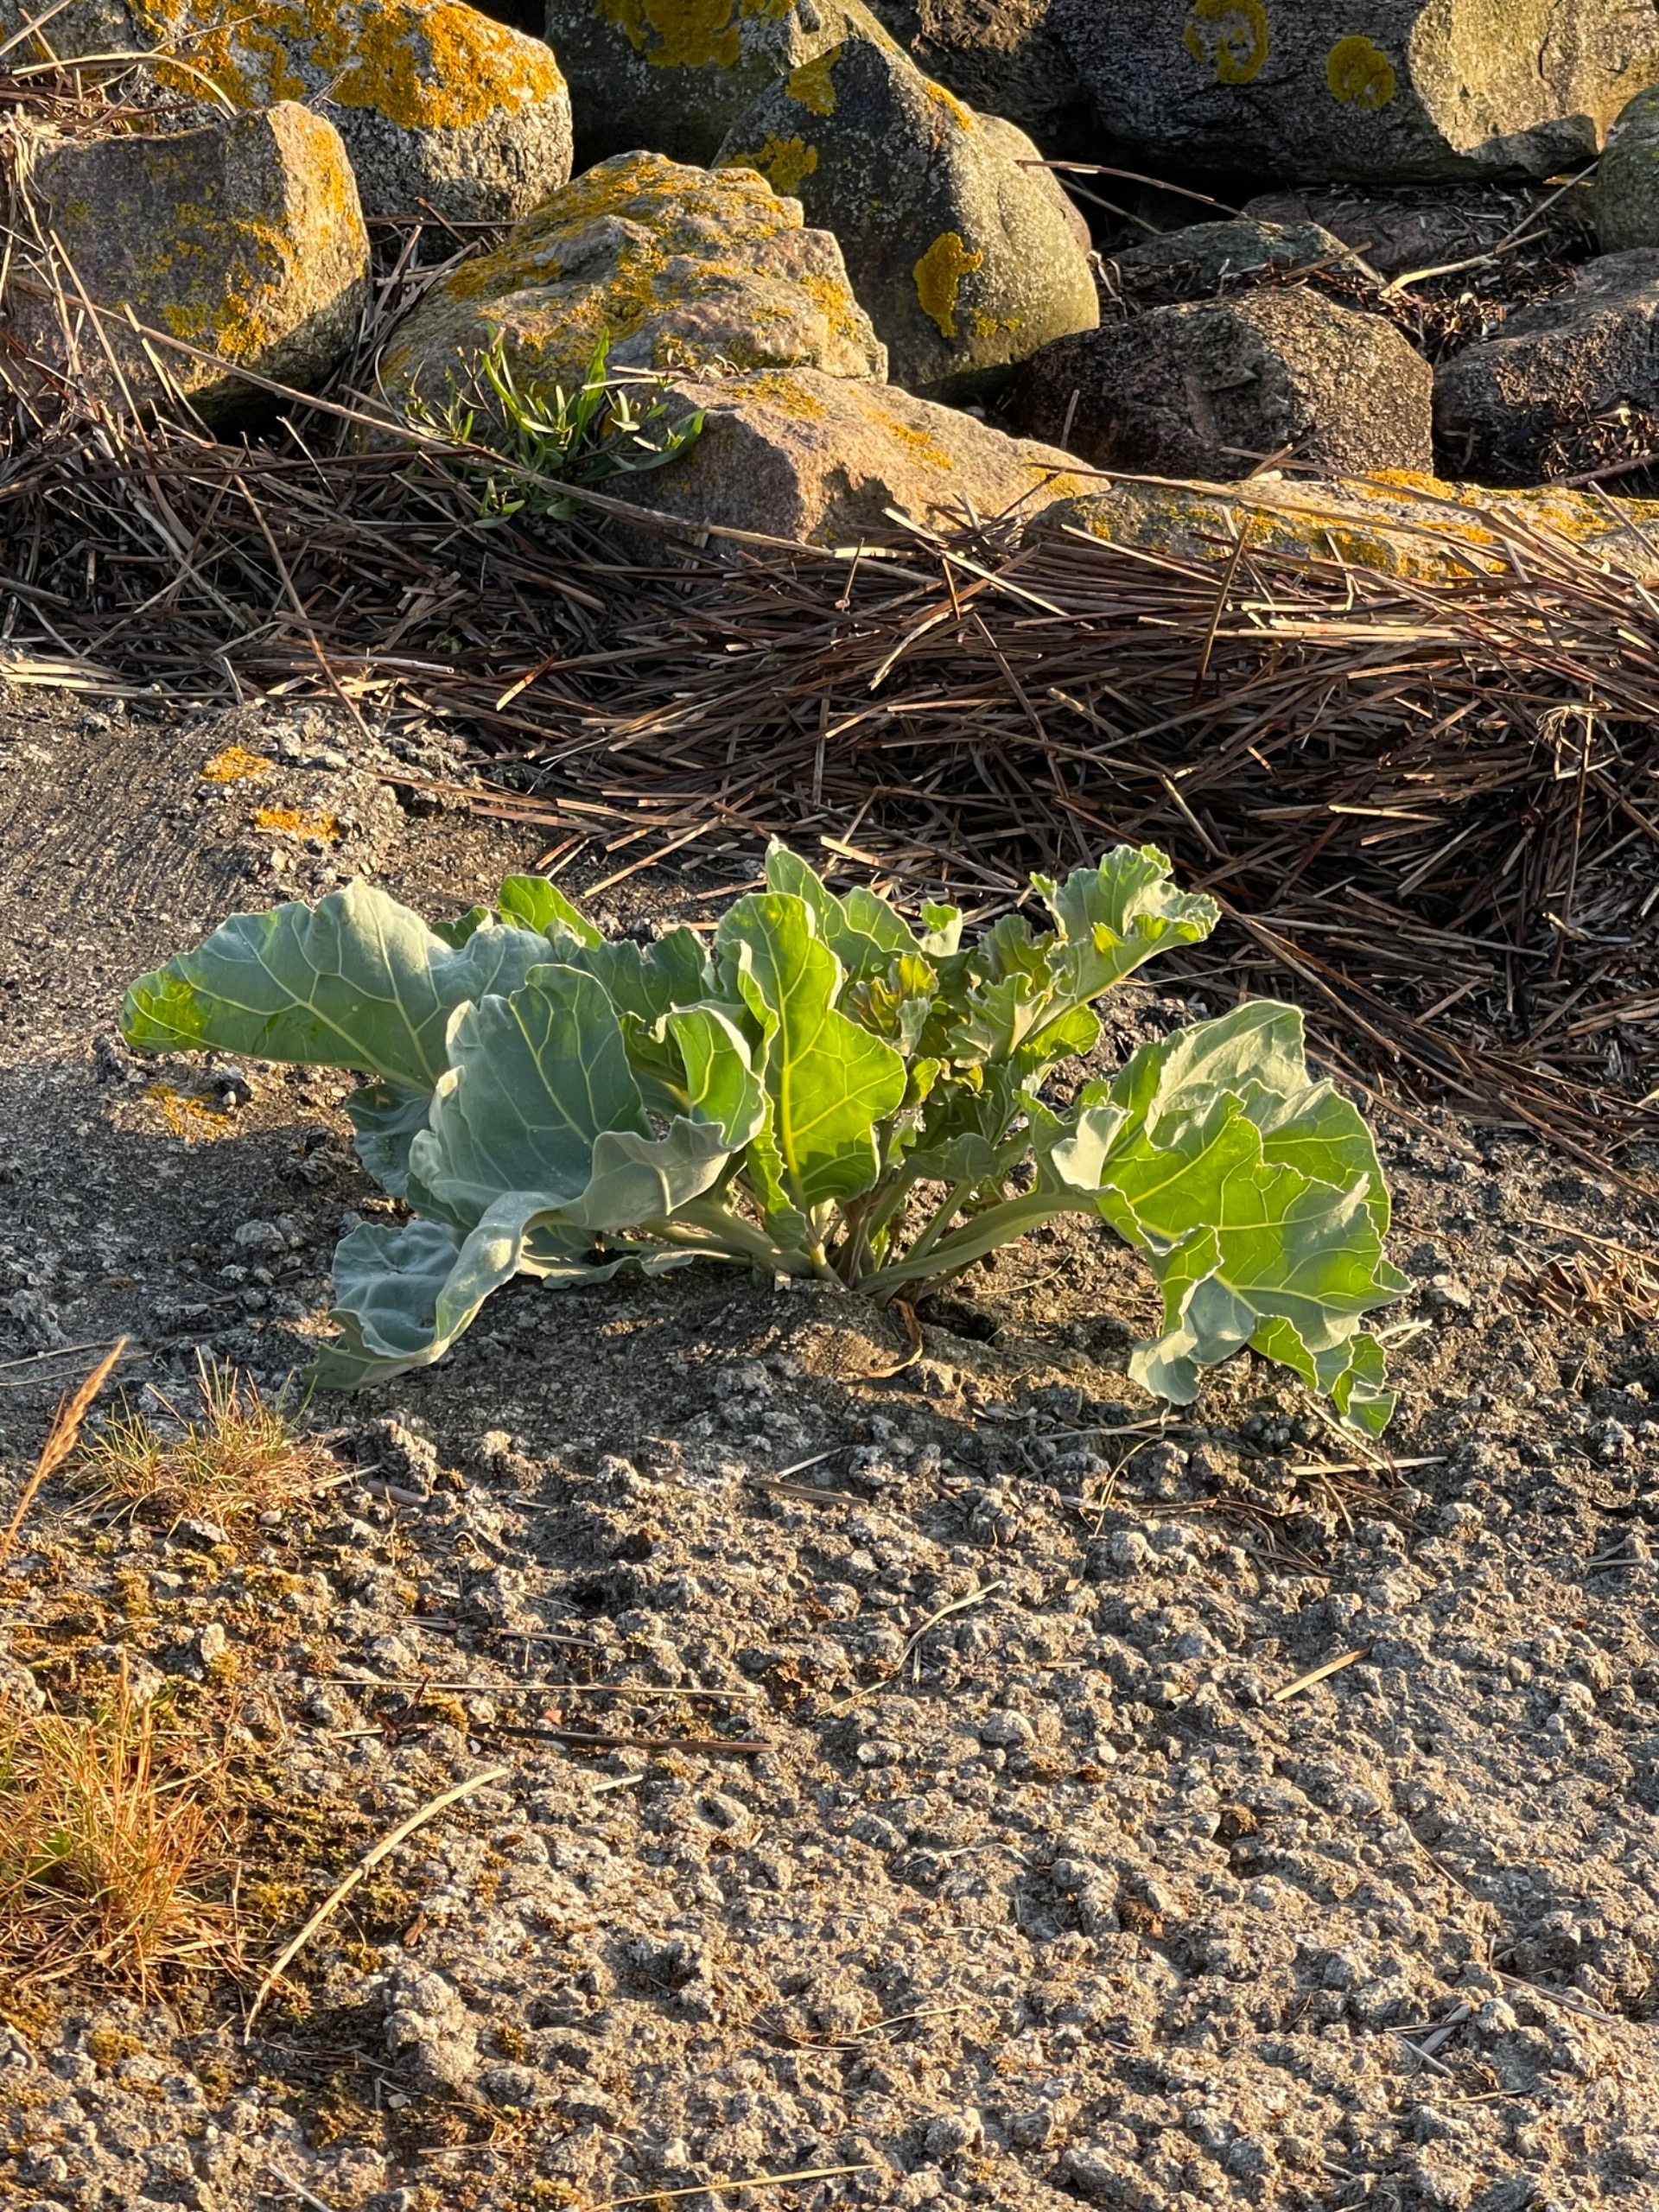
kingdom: Plantae
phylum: Tracheophyta
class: Magnoliopsida
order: Brassicales
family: Brassicaceae
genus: Crambe
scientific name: Crambe maritima
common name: Strandkål
